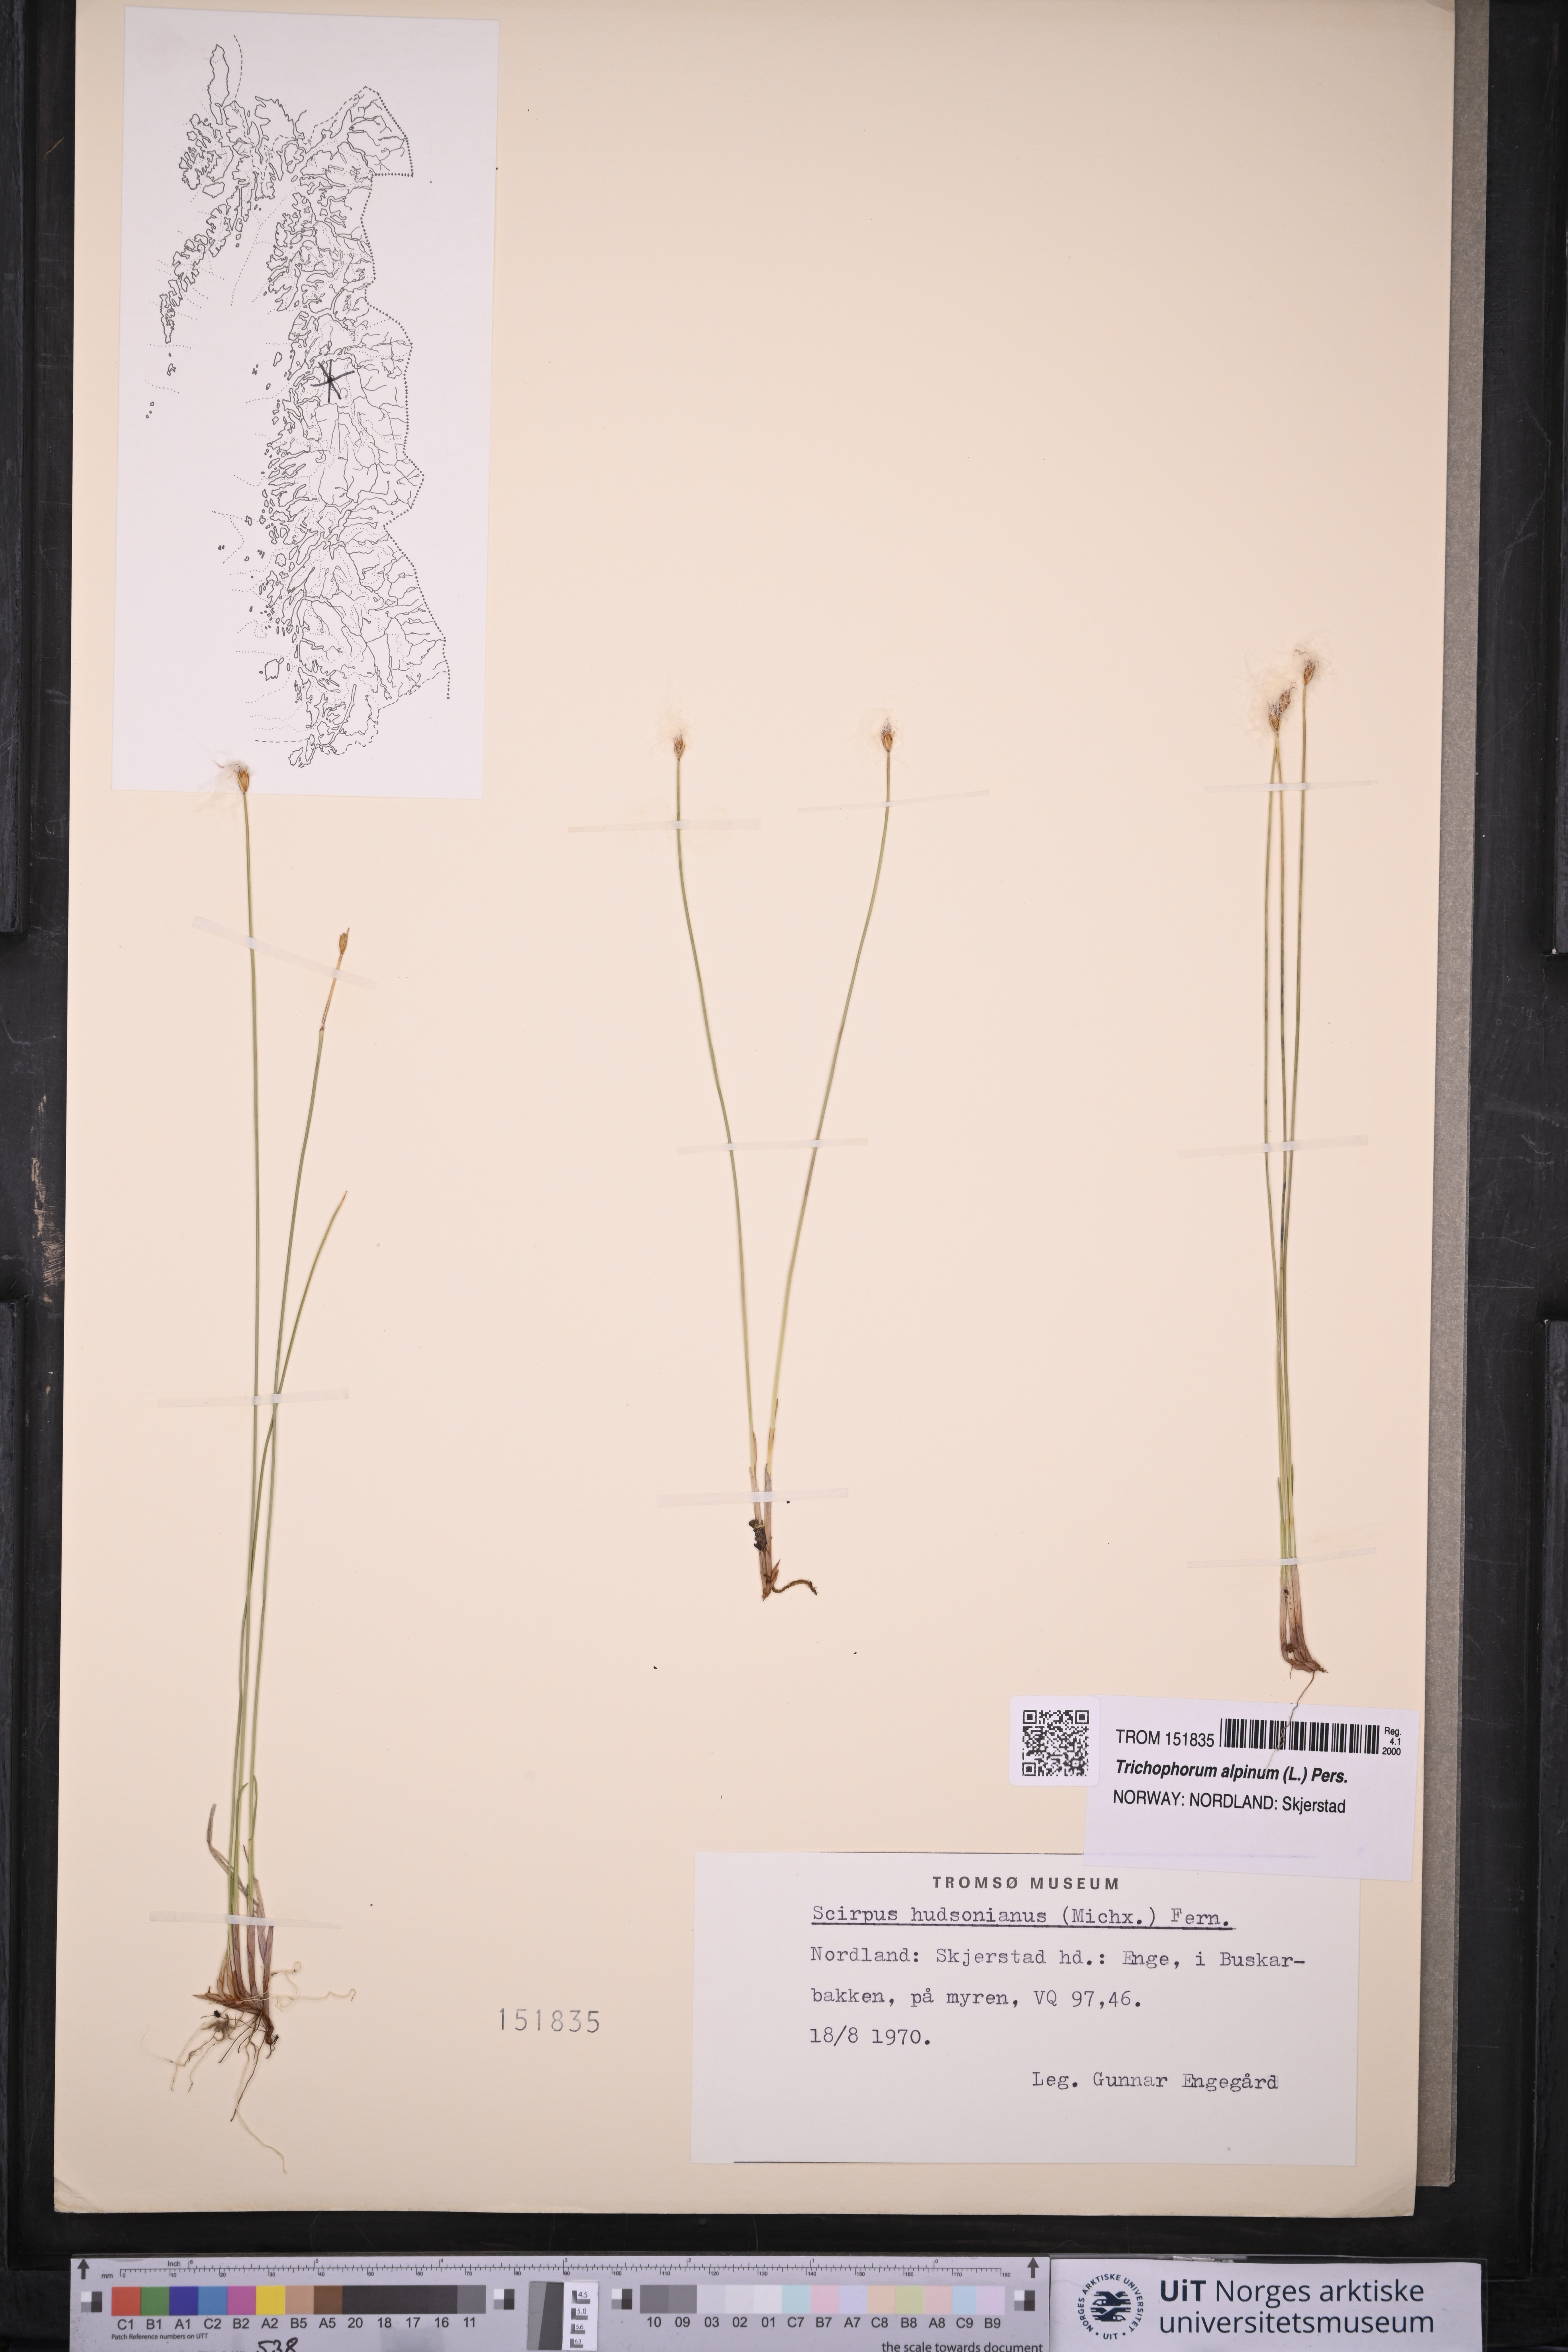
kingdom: Plantae
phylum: Tracheophyta
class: Liliopsida
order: Poales
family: Cyperaceae
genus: Trichophorum
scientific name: Trichophorum alpinum
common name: Alpine bulrush
